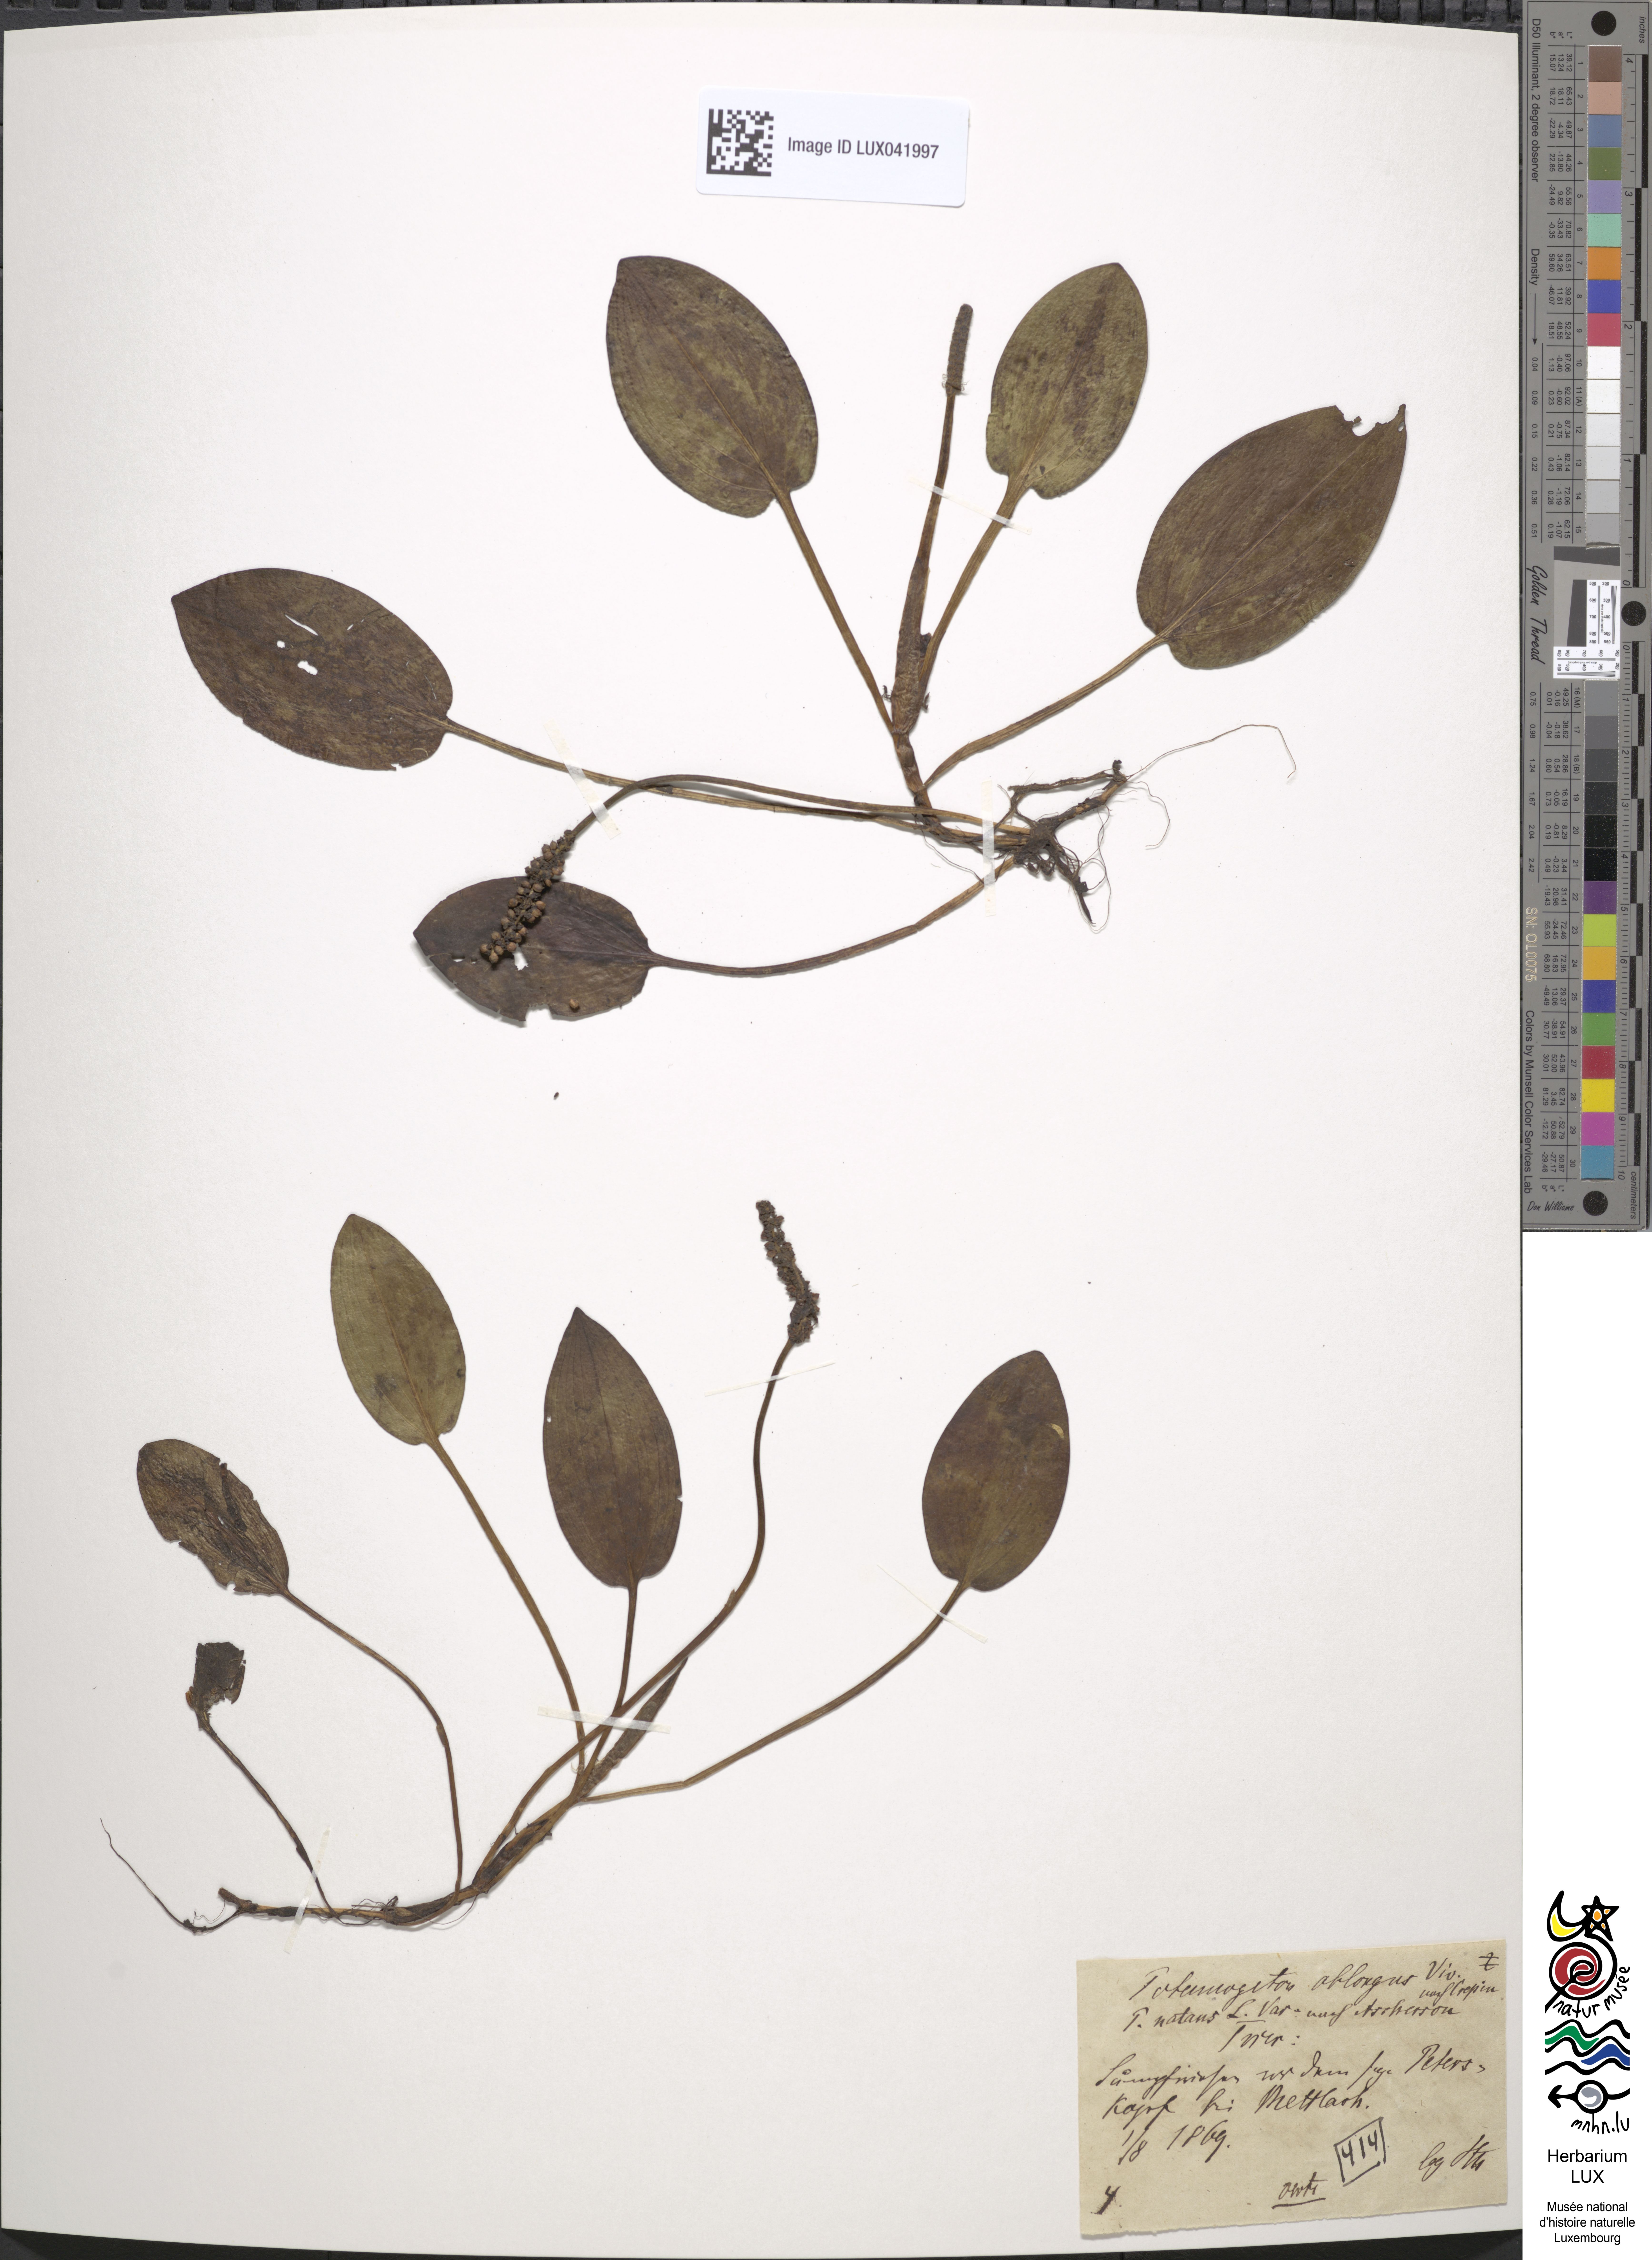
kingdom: Plantae
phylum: Tracheophyta
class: Liliopsida
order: Alismatales
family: Potamogetonaceae
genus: Potamogeton
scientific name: Potamogeton natans
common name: Broad-leaved pondweed
